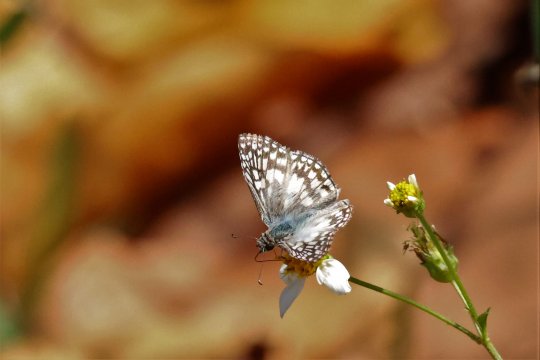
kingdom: Animalia
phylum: Arthropoda
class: Insecta
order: Lepidoptera
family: Hesperiidae
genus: Pyrgus
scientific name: Pyrgus oileus
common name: Tropical Checkered-Skipper
